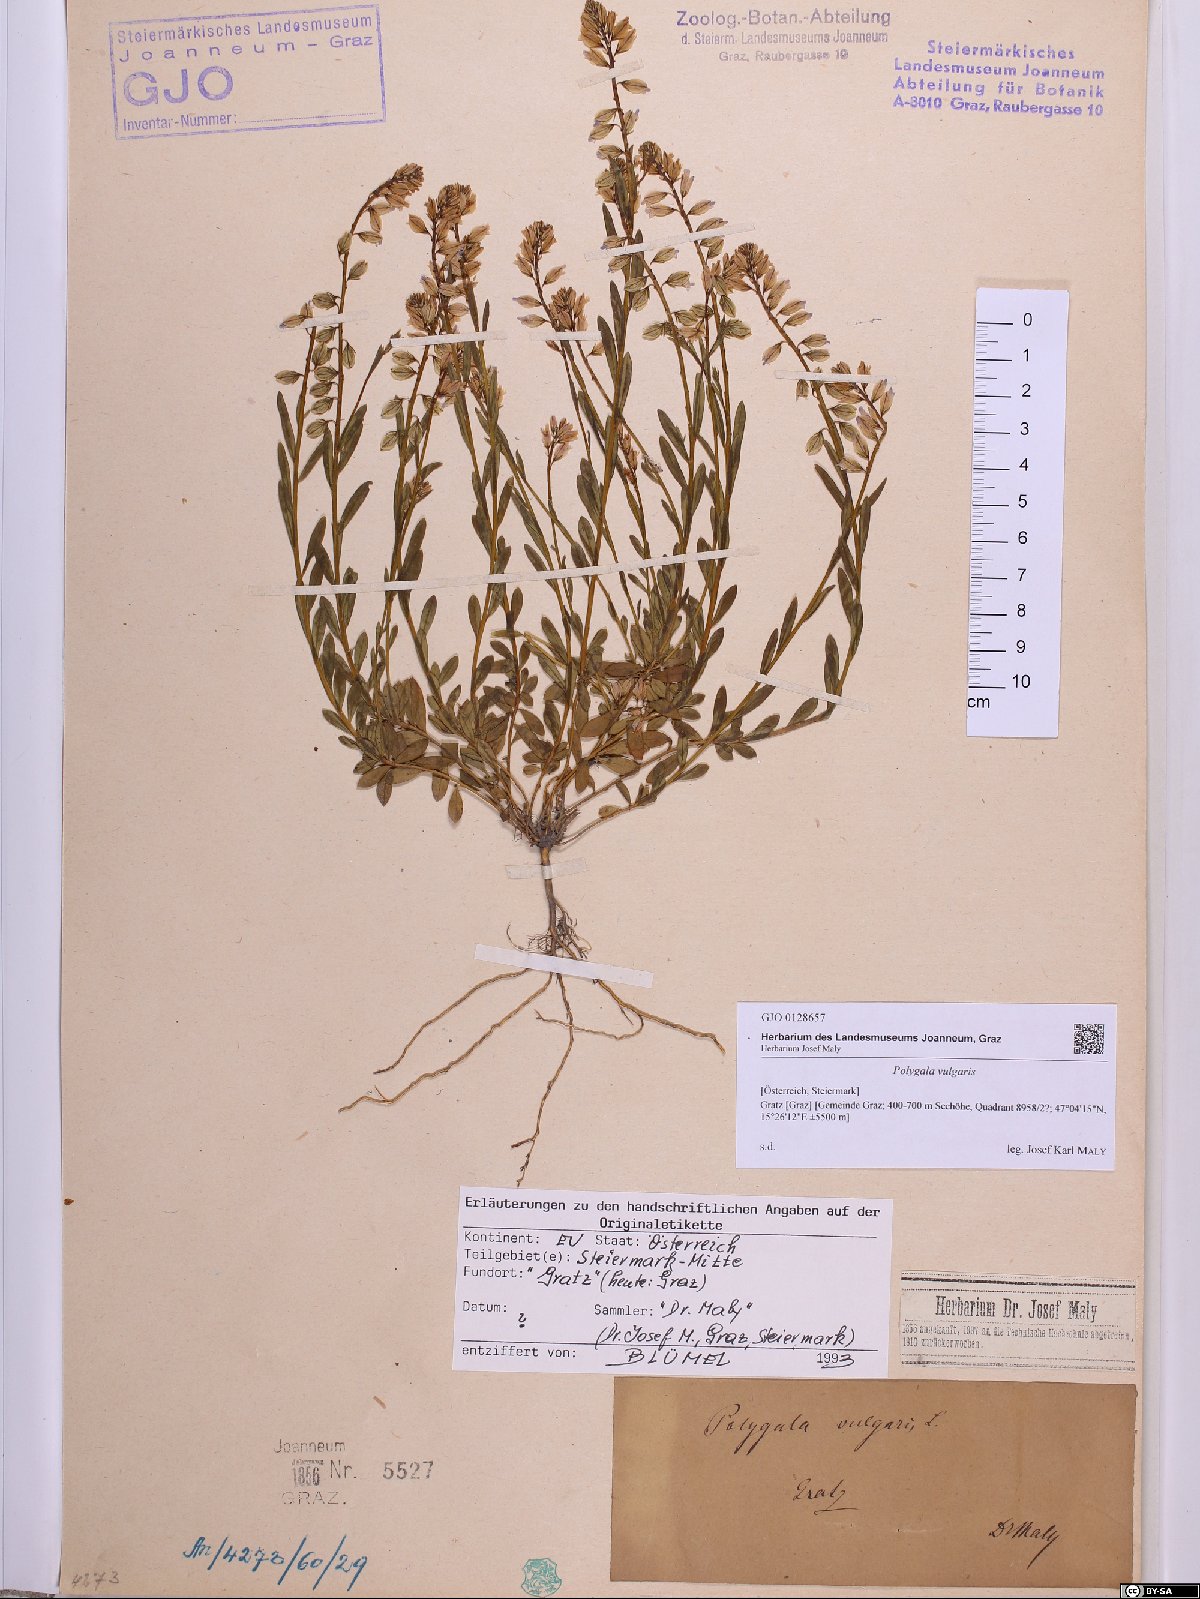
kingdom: Plantae
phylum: Tracheophyta
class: Magnoliopsida
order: Fabales
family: Polygalaceae
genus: Polygala
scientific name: Polygala vulgaris
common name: Common milkwort
